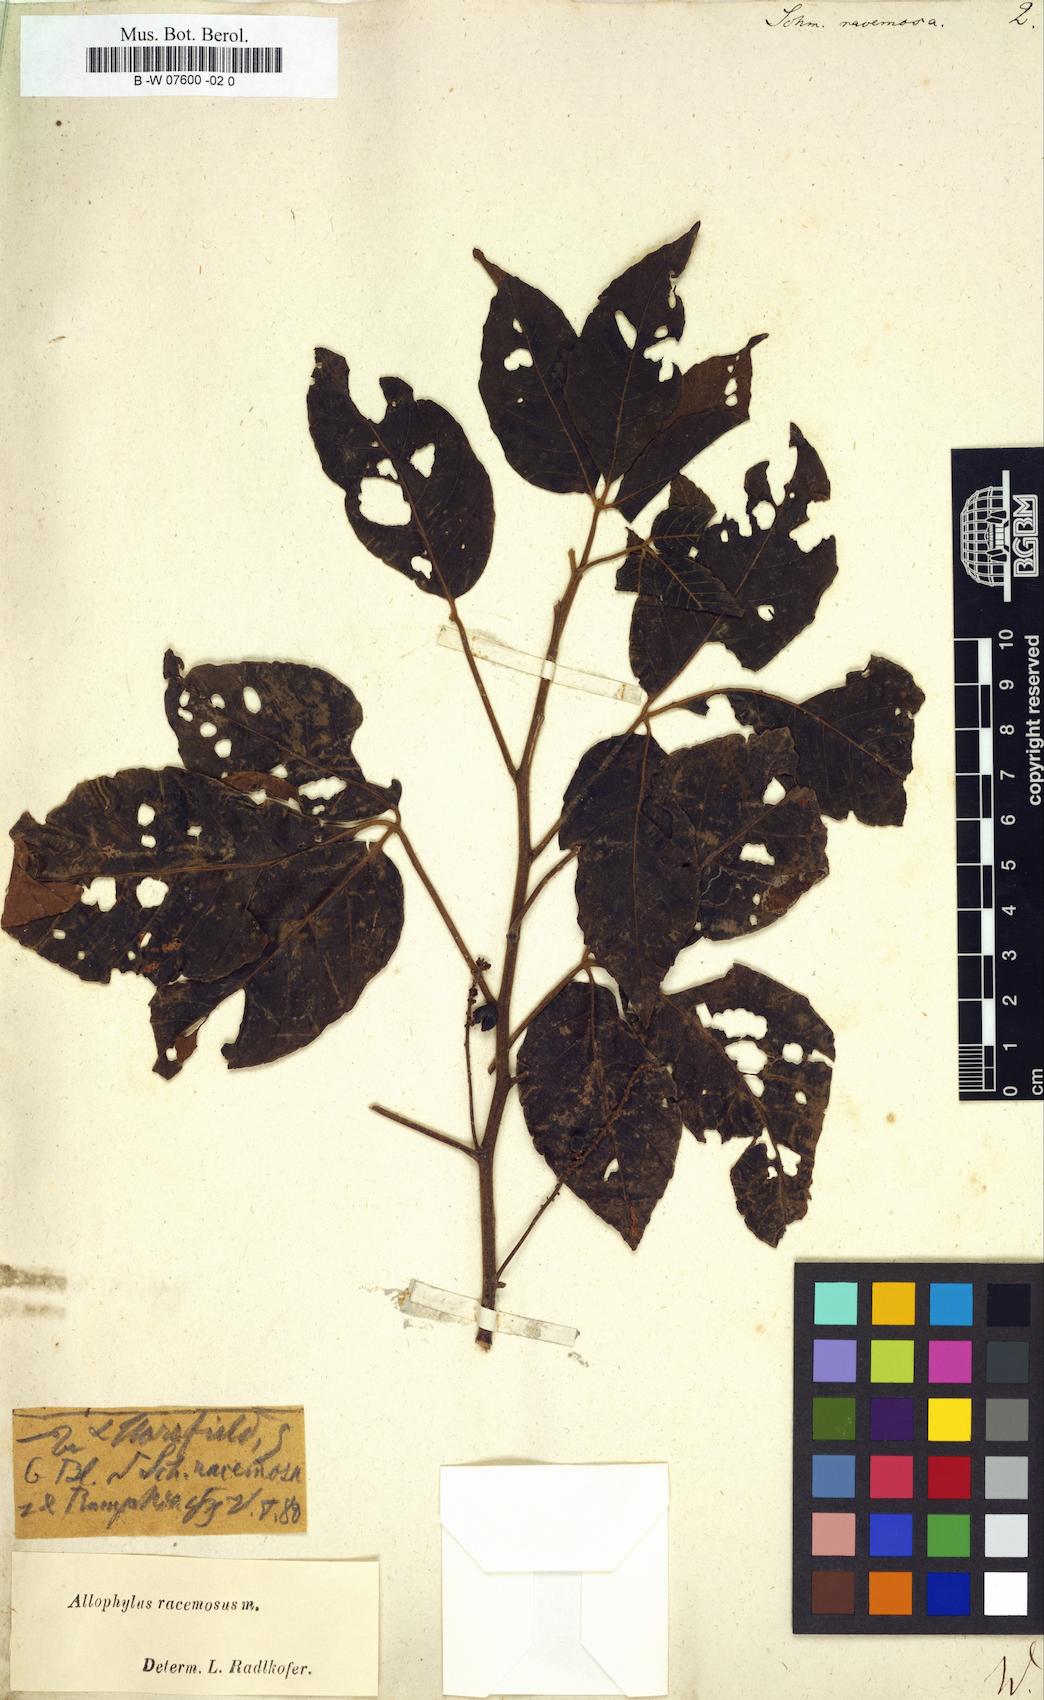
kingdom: Plantae
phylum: Tracheophyta
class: Magnoliopsida
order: Sapindales
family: Sapindaceae
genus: Allophylus
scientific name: Allophylus
